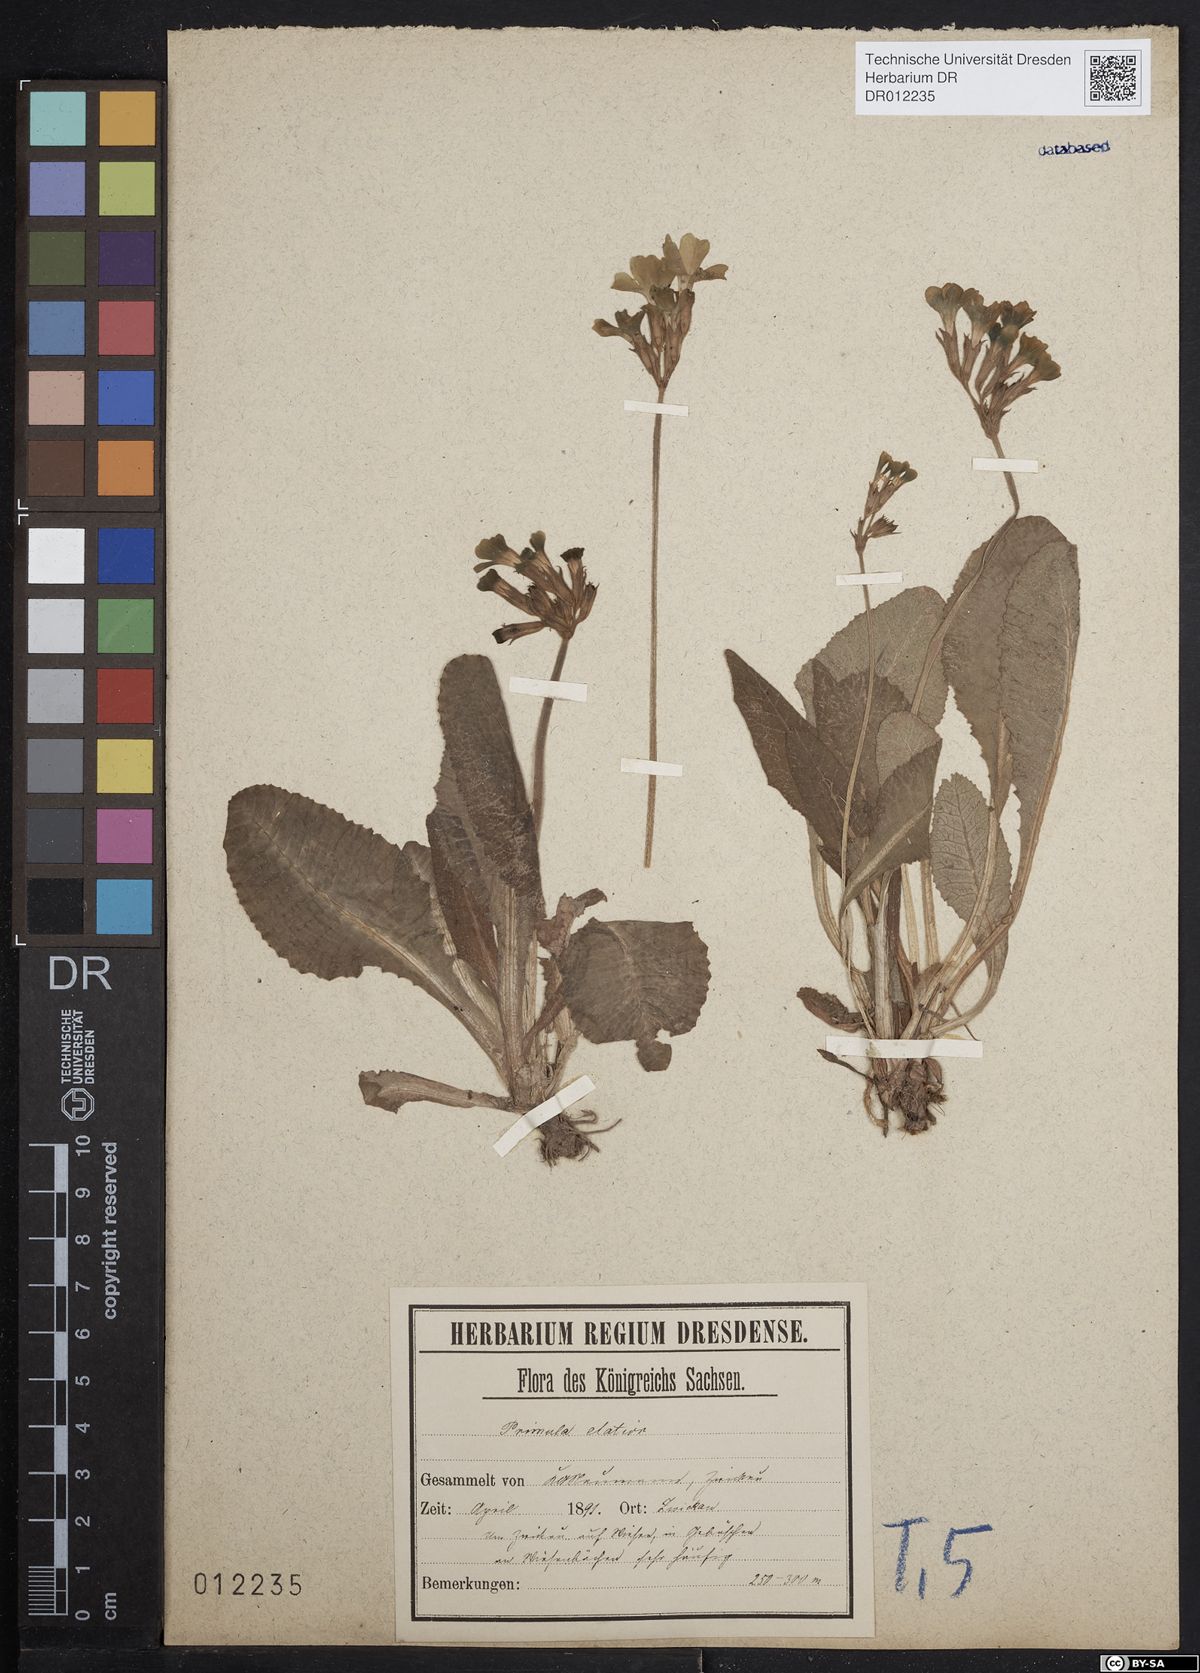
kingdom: Plantae
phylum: Tracheophyta
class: Magnoliopsida
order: Ericales
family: Primulaceae
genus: Primula
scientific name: Primula elatior
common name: Oxlip
